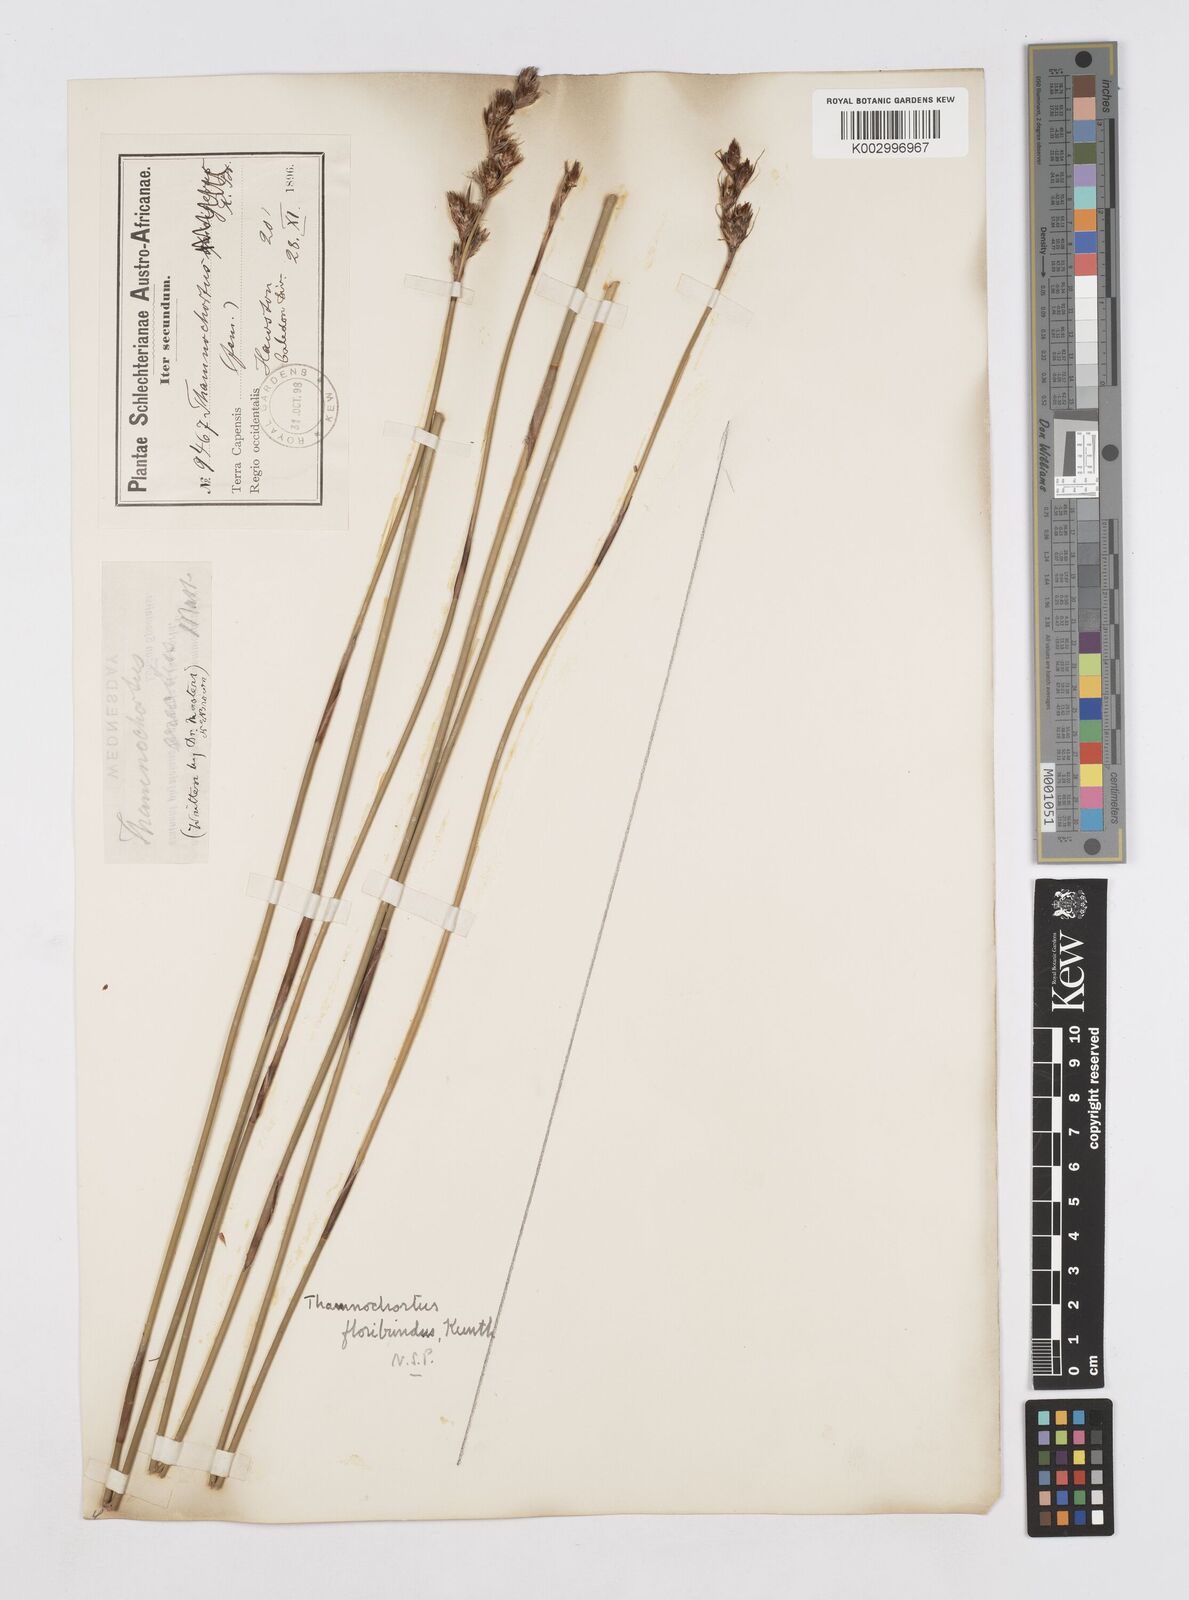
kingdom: Plantae
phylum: Tracheophyta
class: Liliopsida
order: Poales
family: Restionaceae
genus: Thamnochortus
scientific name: Thamnochortus erectus
